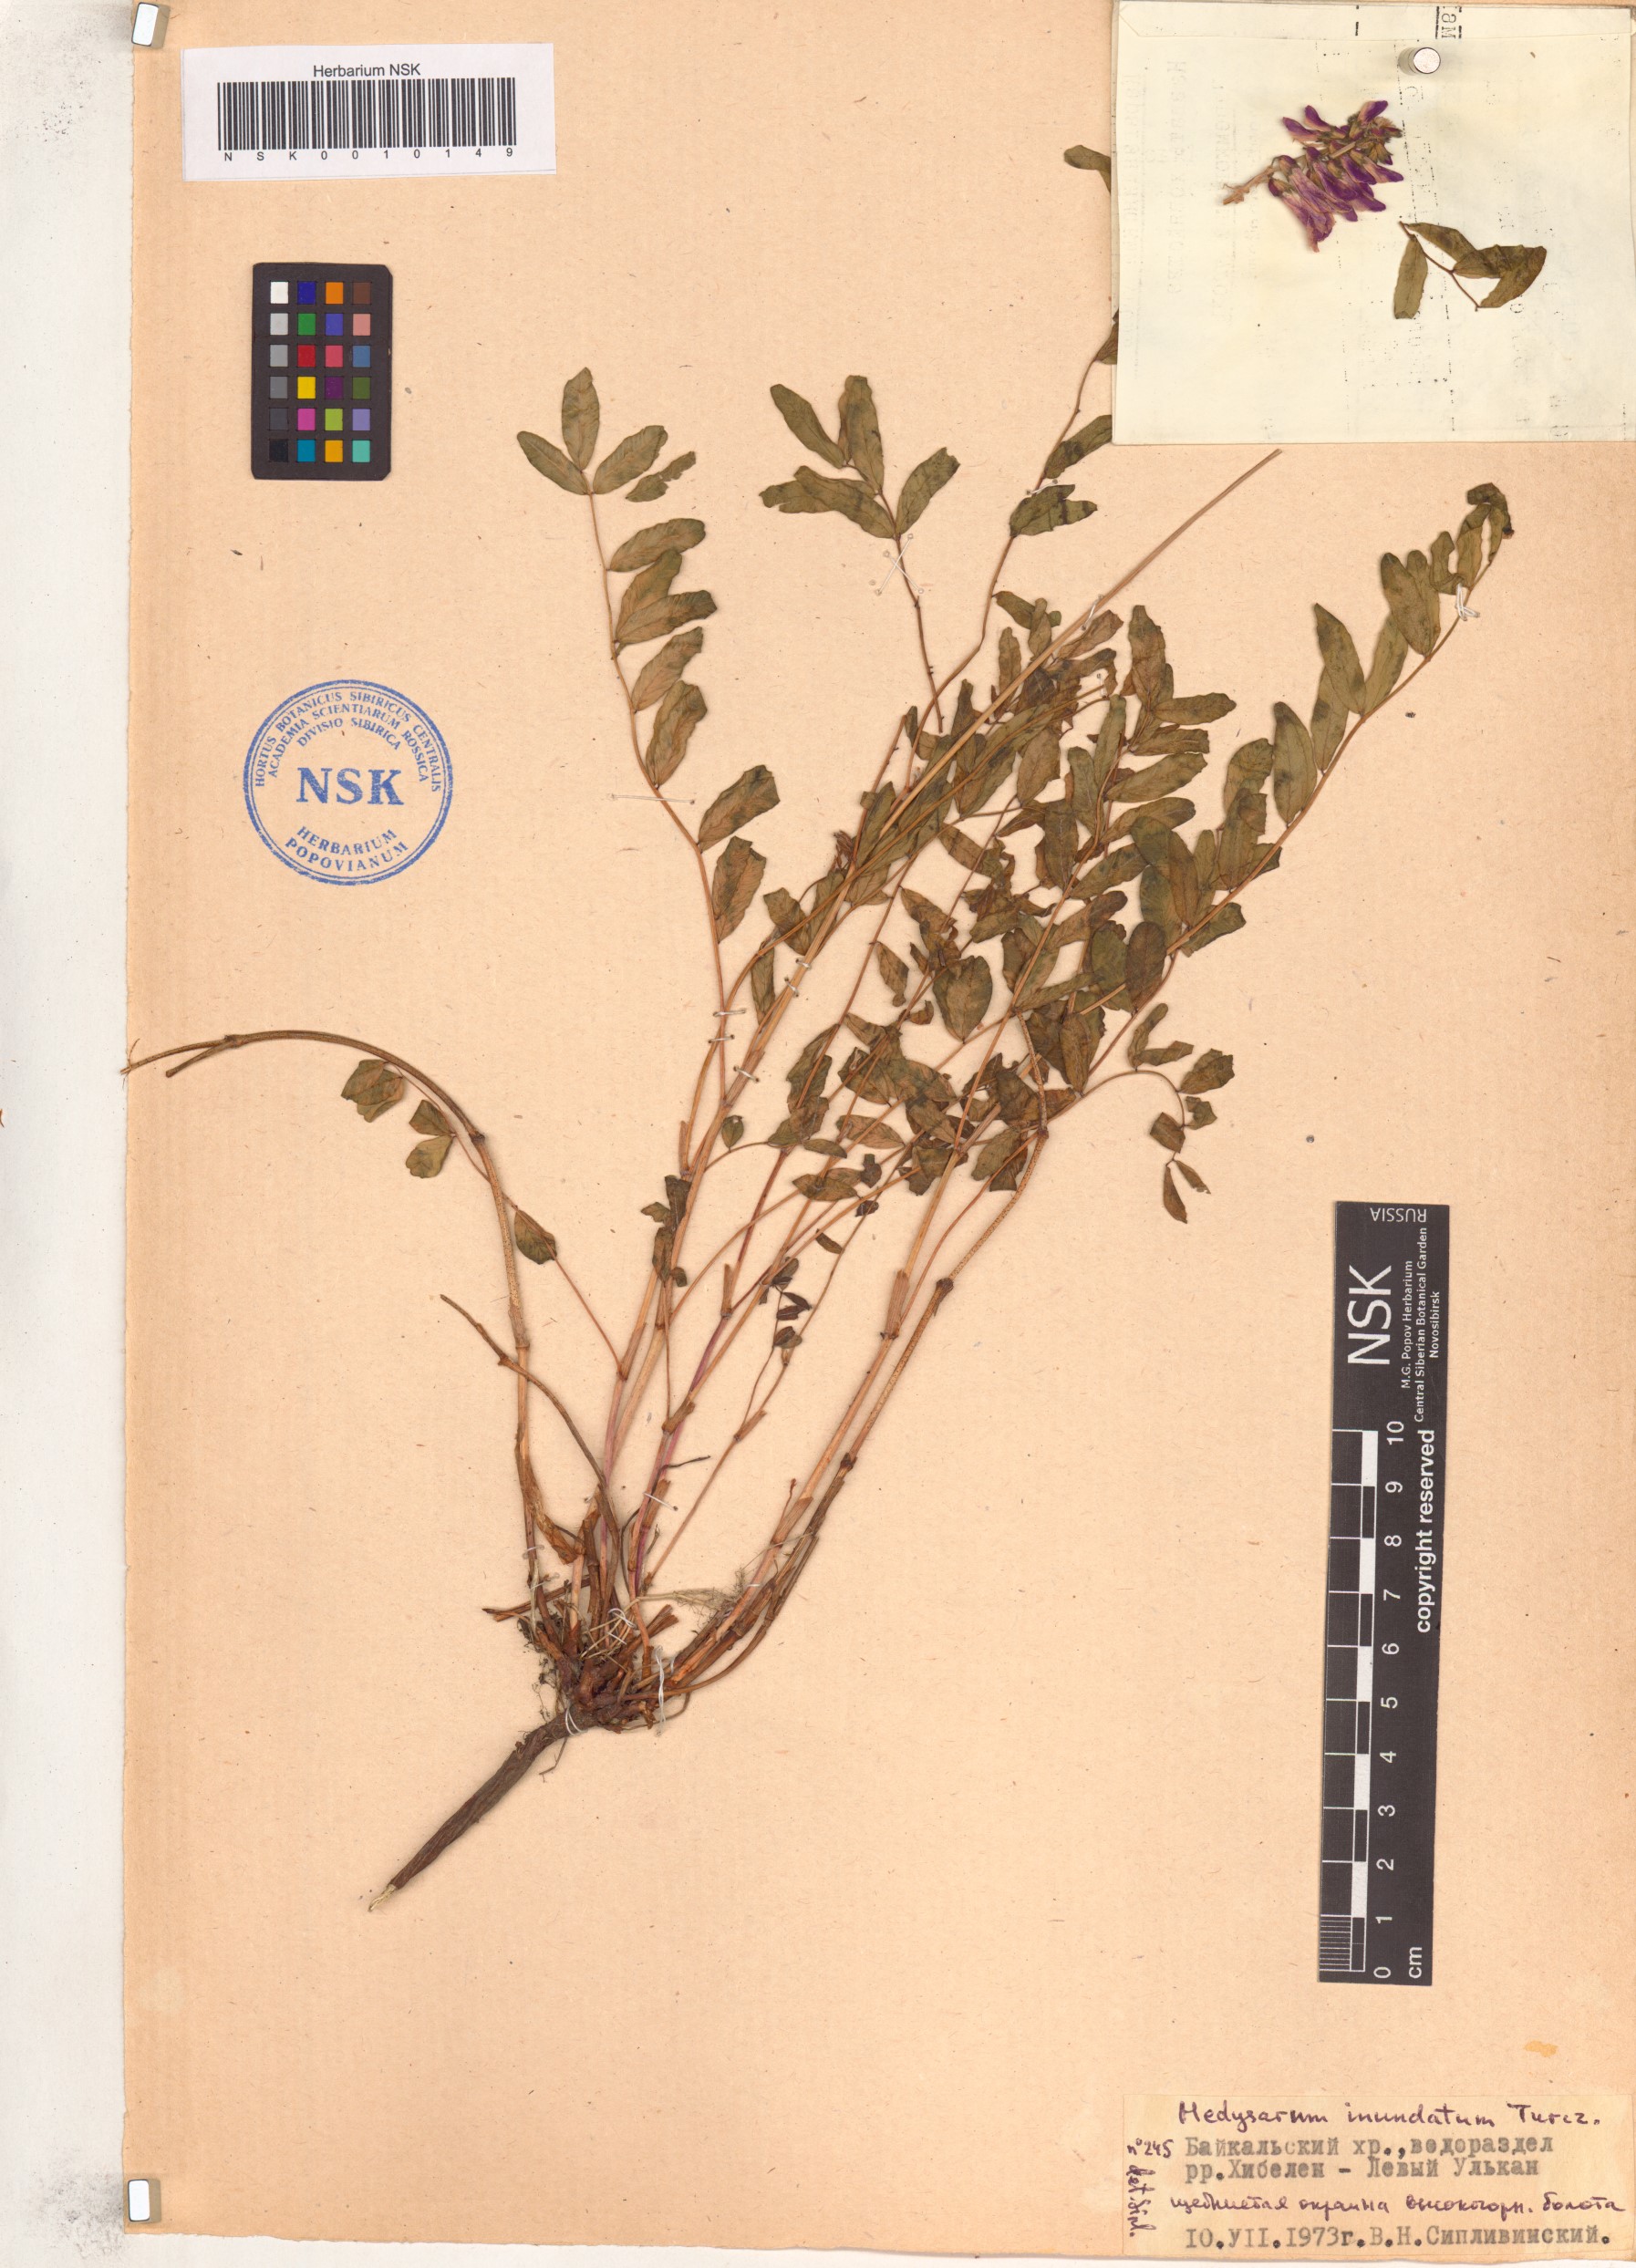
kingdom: Plantae
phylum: Tracheophyta
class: Magnoliopsida
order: Fabales
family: Fabaceae
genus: Hedysarum
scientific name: Hedysarum inundatum
